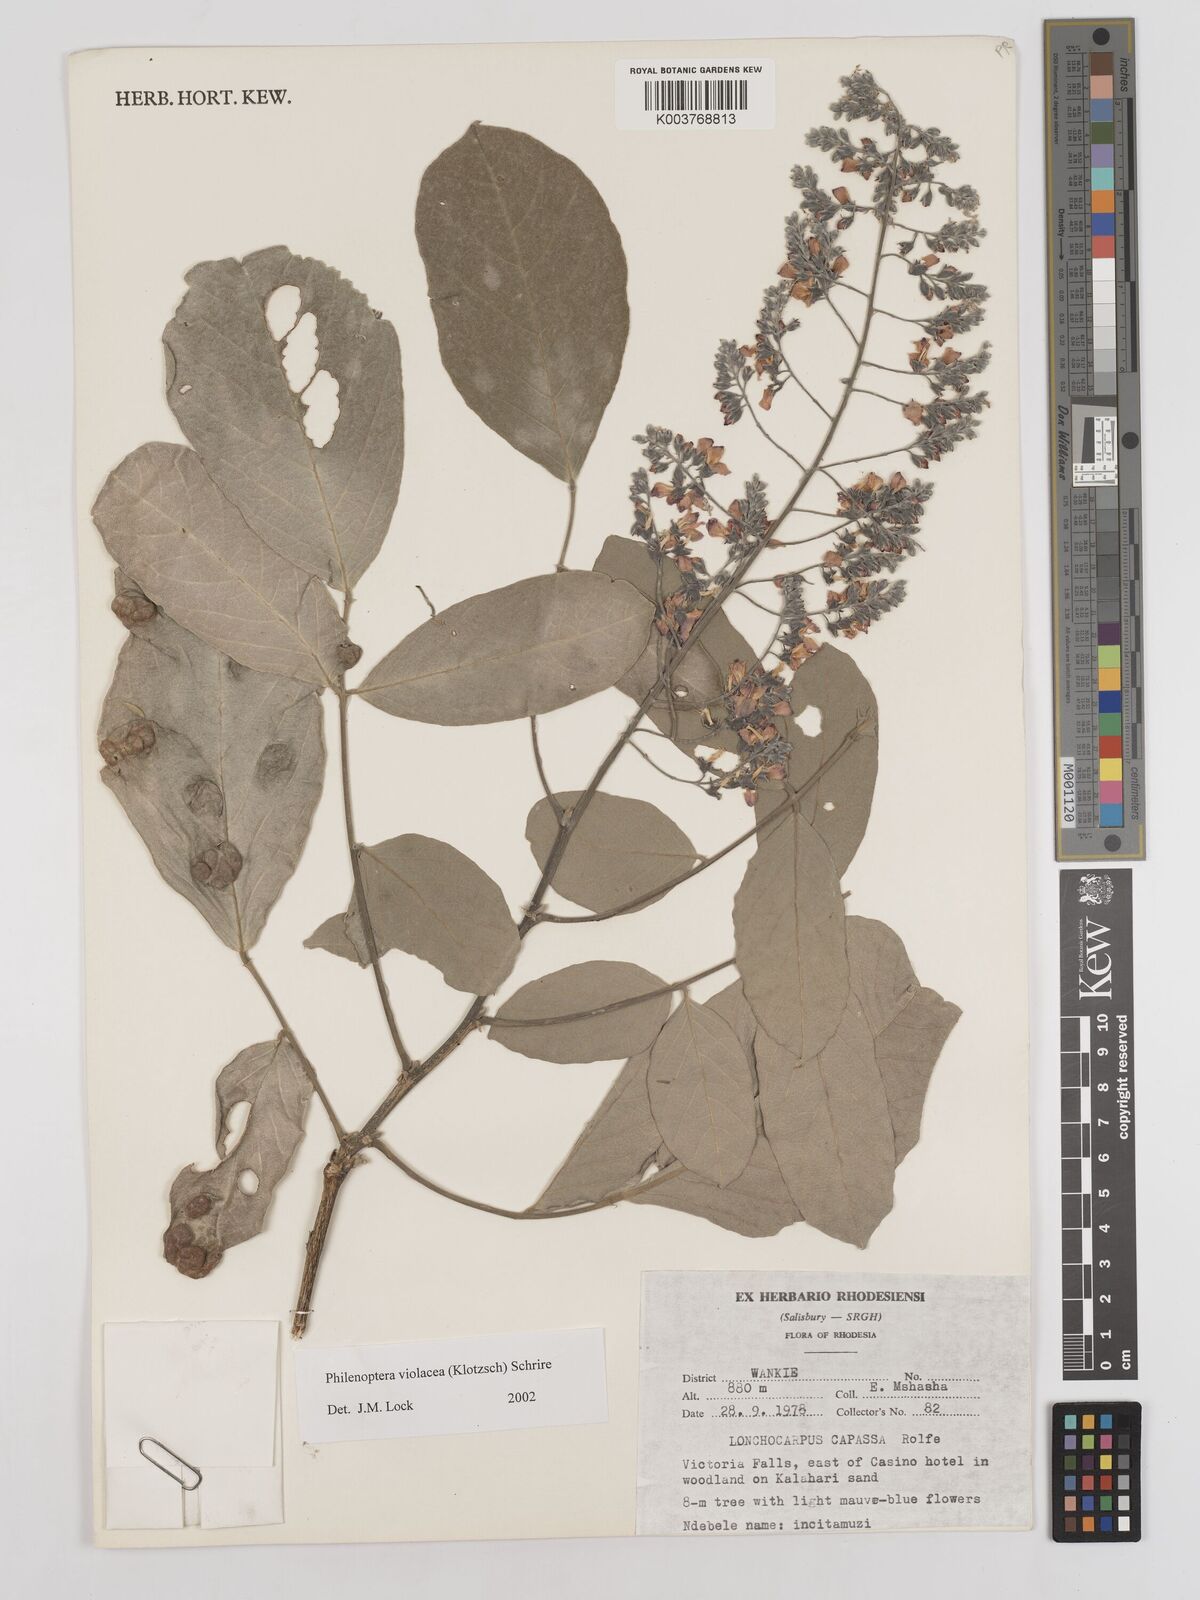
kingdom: Plantae
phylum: Tracheophyta
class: Magnoliopsida
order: Fabales
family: Fabaceae
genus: Philenoptera
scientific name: Philenoptera violacea
